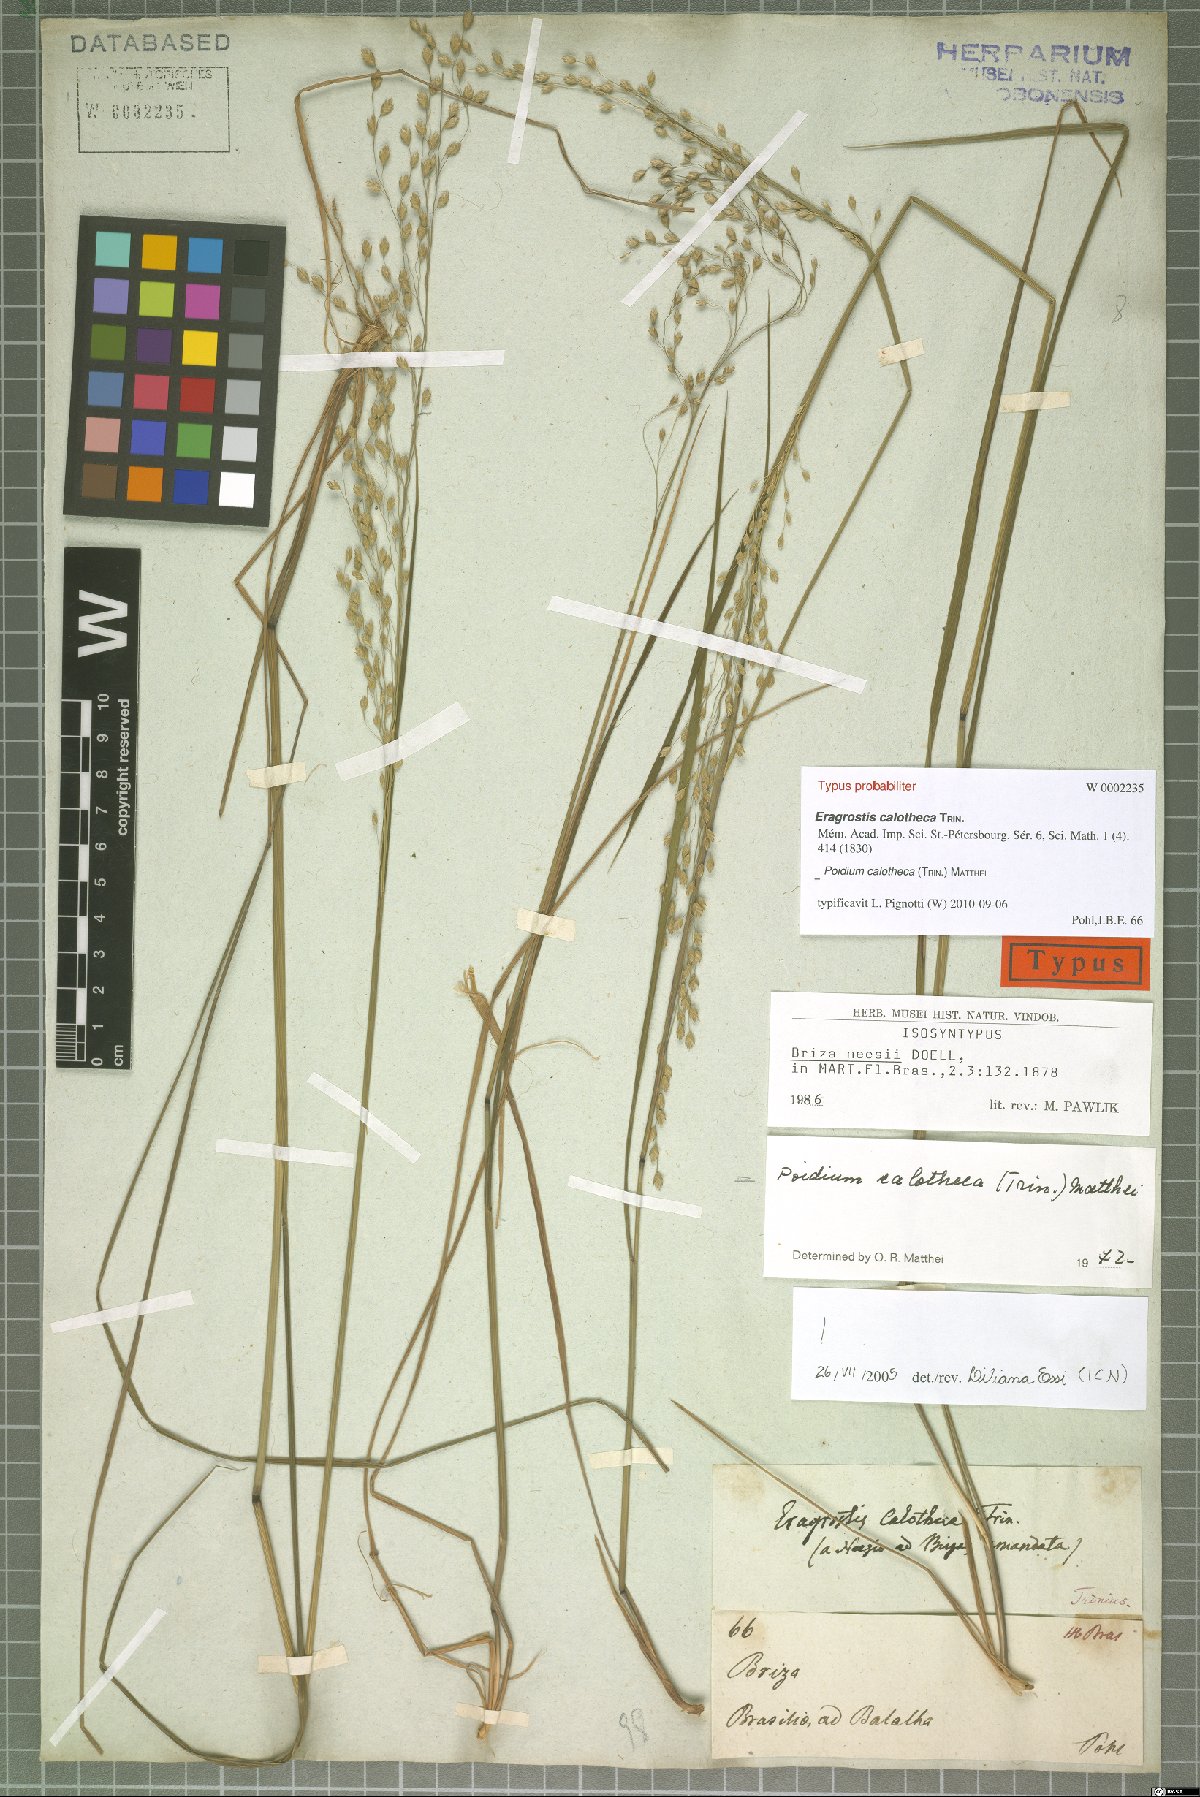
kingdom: Plantae
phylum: Tracheophyta
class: Liliopsida
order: Poales
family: Poaceae
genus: Poidium
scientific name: Poidium calotheca
